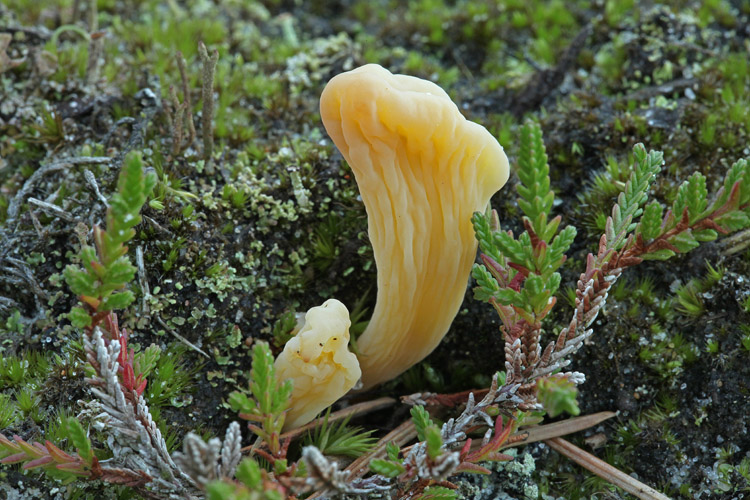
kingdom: Fungi
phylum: Basidiomycota
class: Agaricomycetes
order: Agaricales
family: Clavariaceae
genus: Clavaria
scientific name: Clavaria argillacea
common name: lerfarvet køllesvamp
